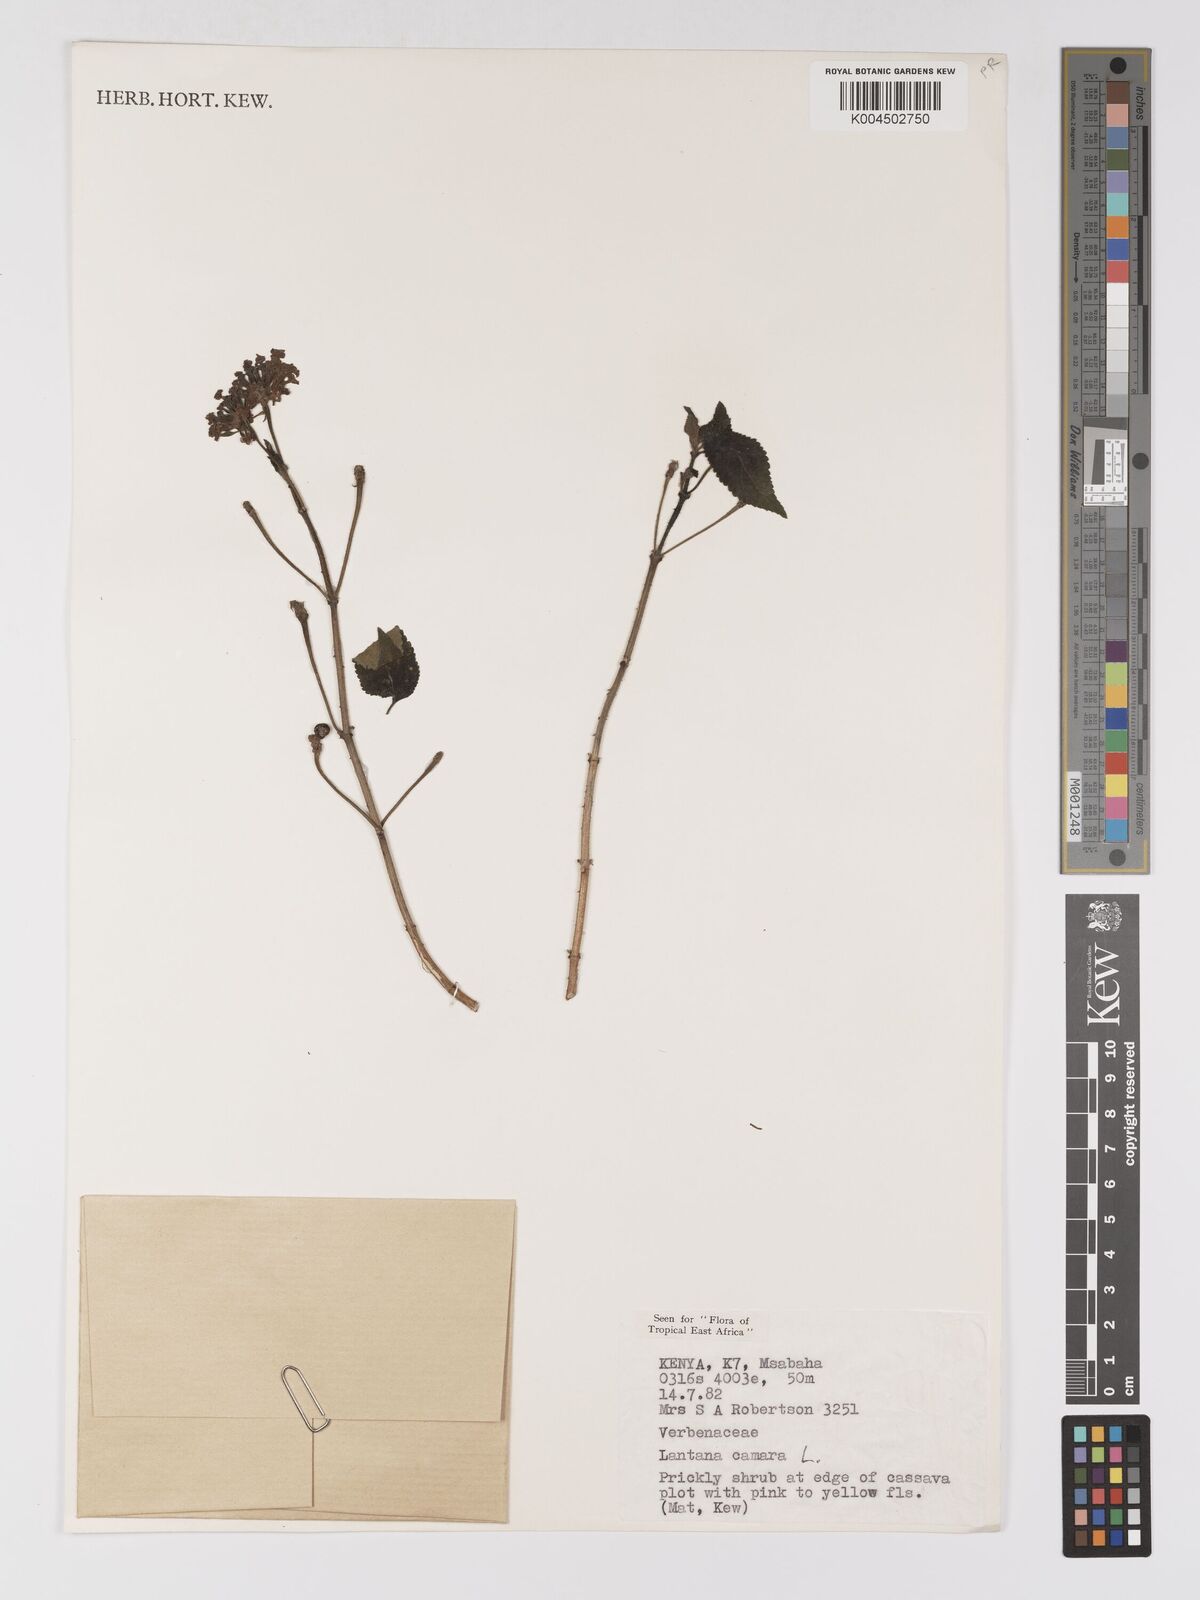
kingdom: Plantae
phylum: Tracheophyta
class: Magnoliopsida
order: Lamiales
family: Verbenaceae
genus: Lantana
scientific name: Lantana camara
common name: Lantana
